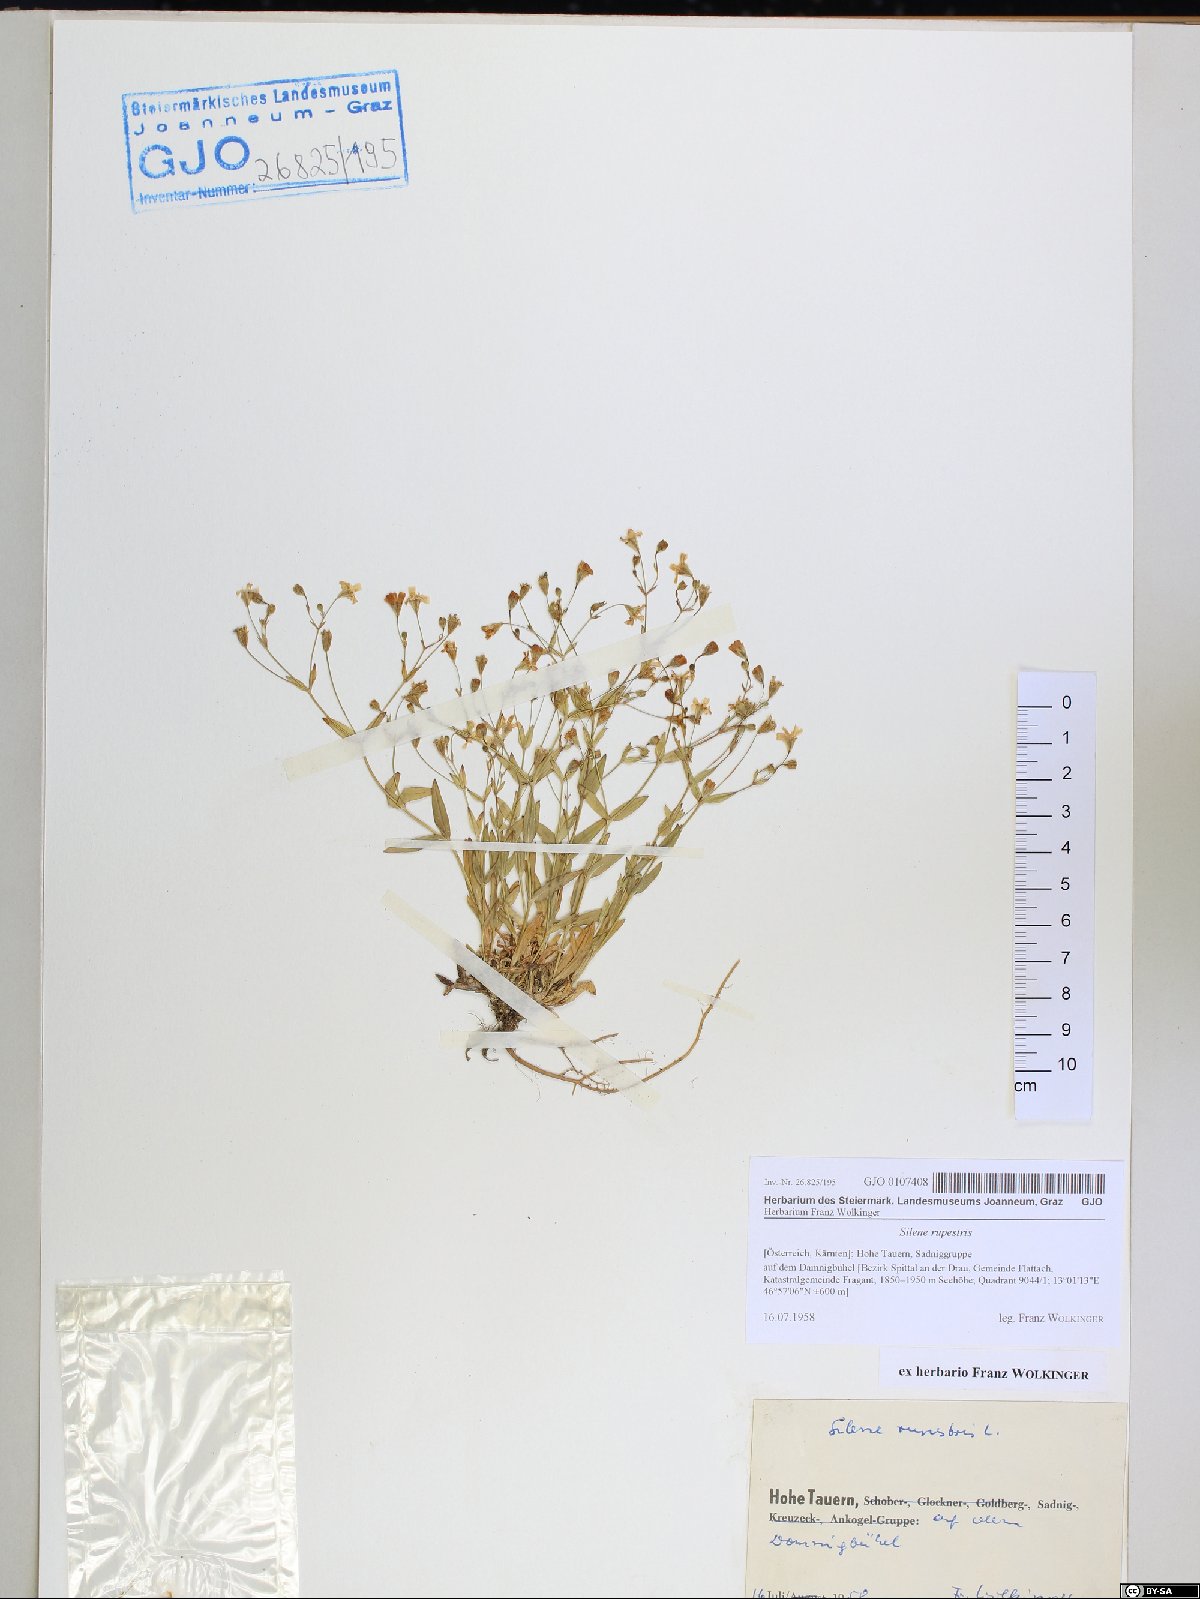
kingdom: Plantae
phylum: Tracheophyta
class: Magnoliopsida
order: Caryophyllales
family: Caryophyllaceae
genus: Atocion
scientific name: Atocion rupestre
